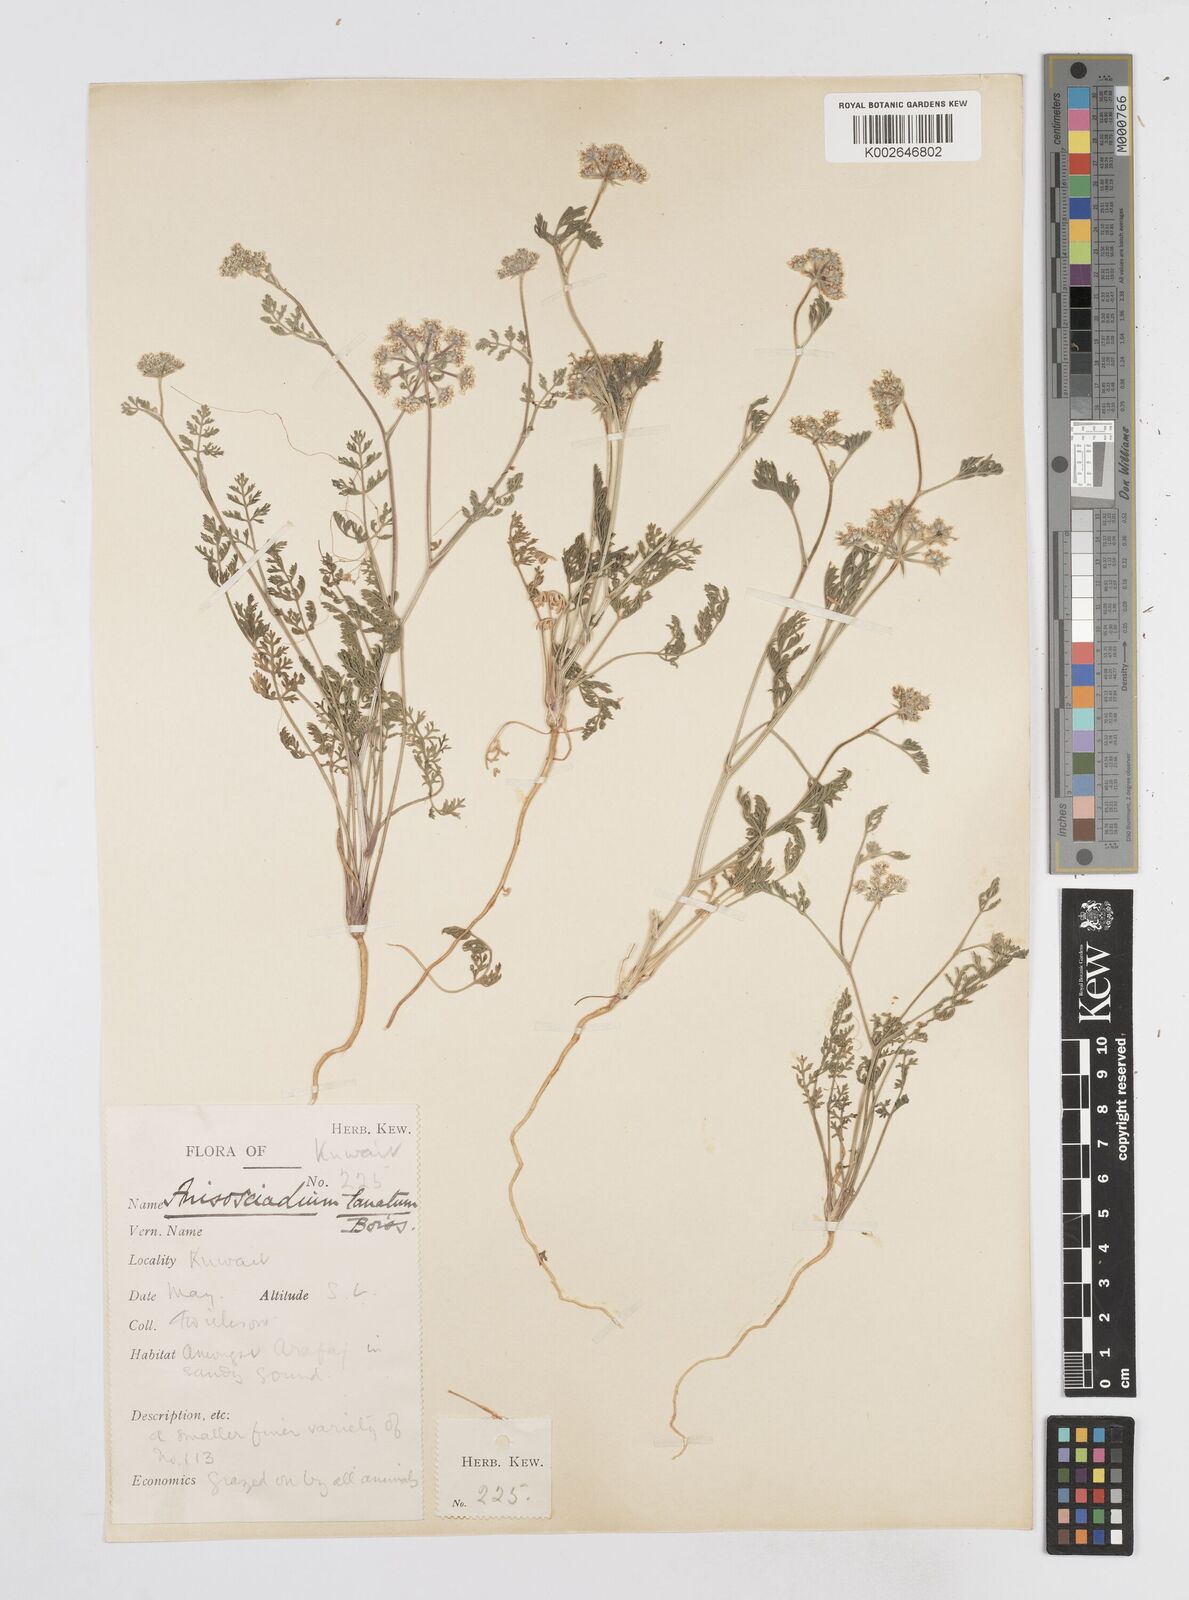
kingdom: Plantae
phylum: Tracheophyta
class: Magnoliopsida
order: Apiales
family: Apiaceae
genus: Anisosciadium
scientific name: Anisosciadium lanatum
